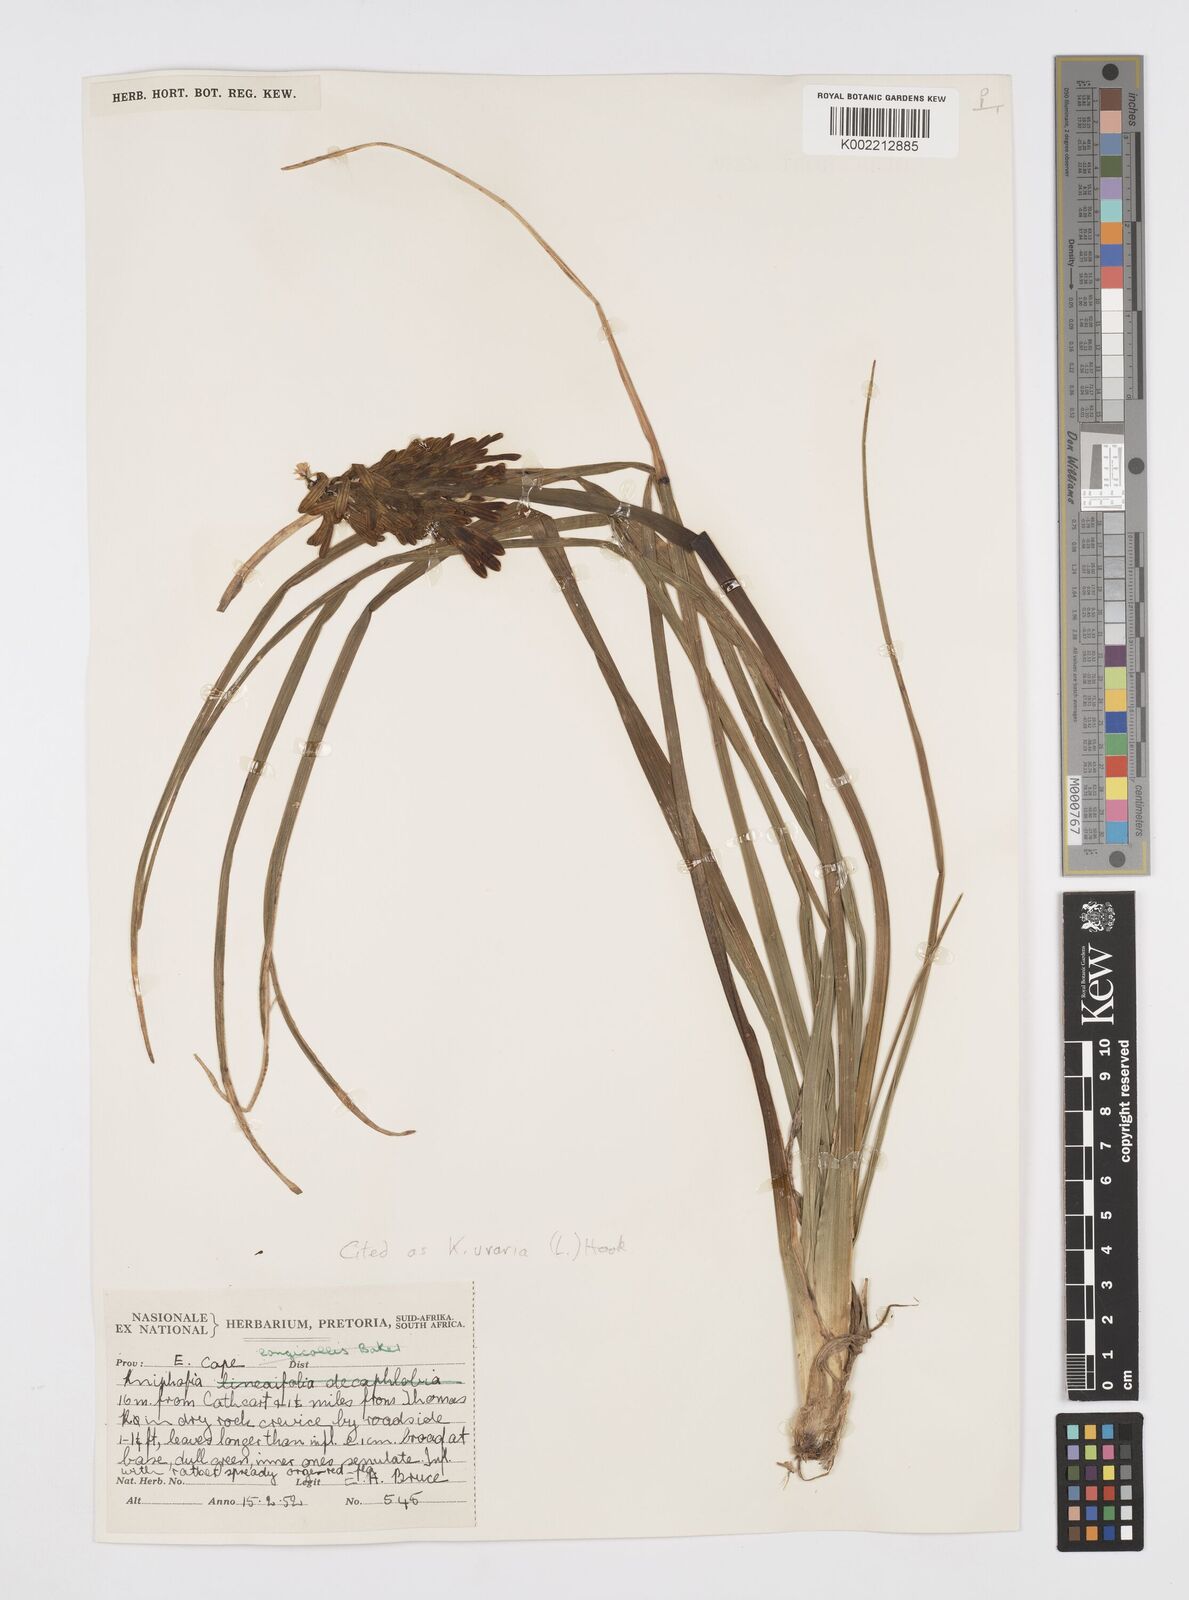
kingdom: Plantae
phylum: Tracheophyta
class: Liliopsida
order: Asparagales
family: Asphodelaceae
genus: Kniphofia
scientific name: Kniphofia uvaria
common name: Red-hot-poker
